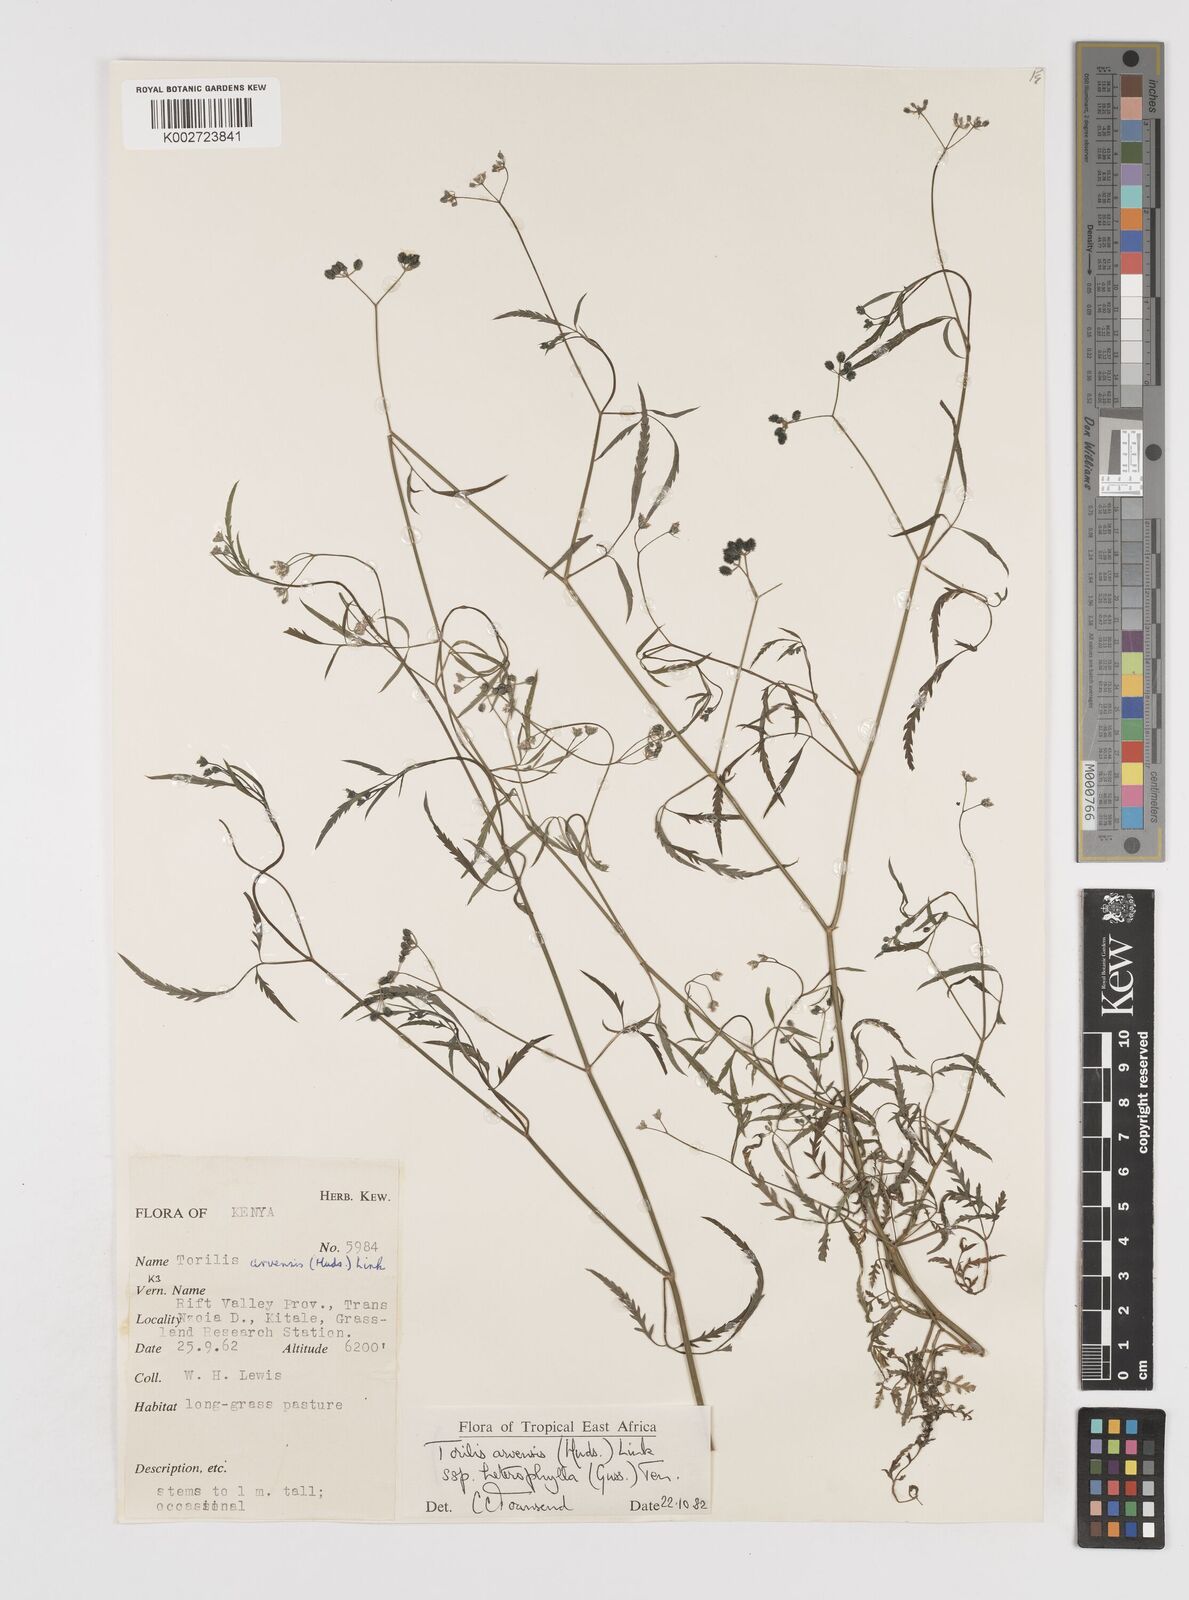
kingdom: Plantae
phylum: Tracheophyta
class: Magnoliopsida
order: Apiales
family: Apiaceae
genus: Torilis
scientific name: Torilis arvensis
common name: Spreading hedge-parsley
